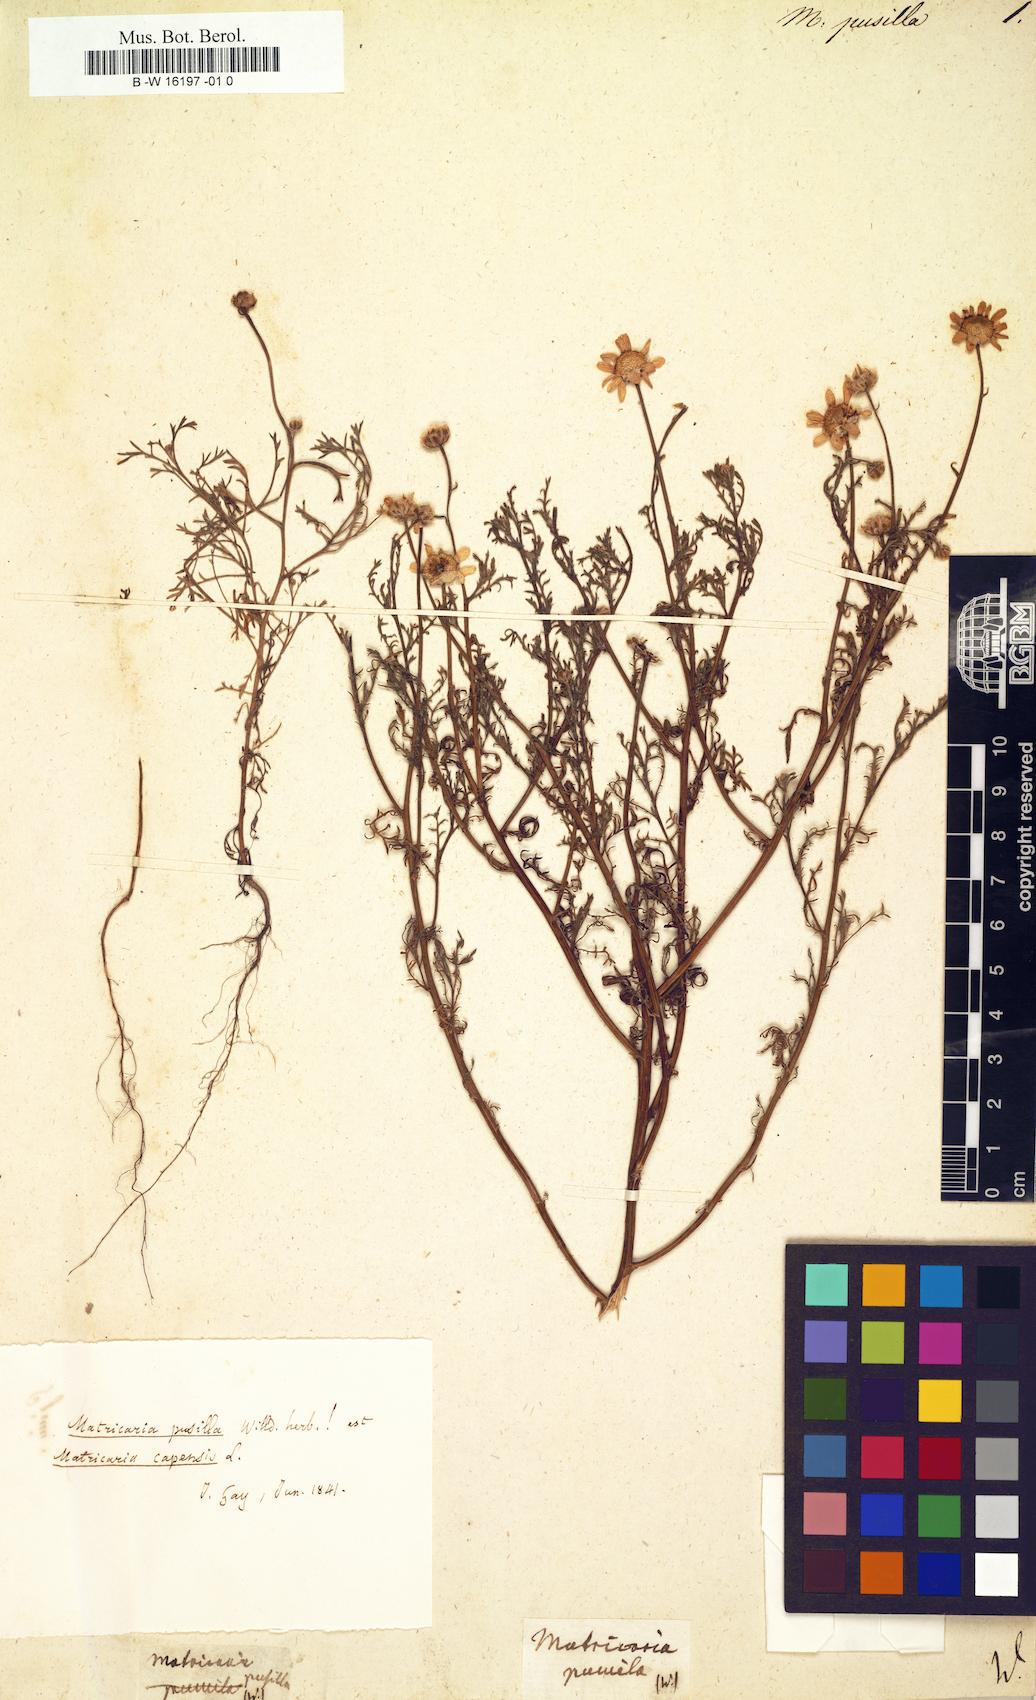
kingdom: Plantae
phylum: Tracheophyta
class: Magnoliopsida
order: Asterales
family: Asteraceae
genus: Matricaria
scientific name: Matricaria chamomilla
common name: Scented mayweed
